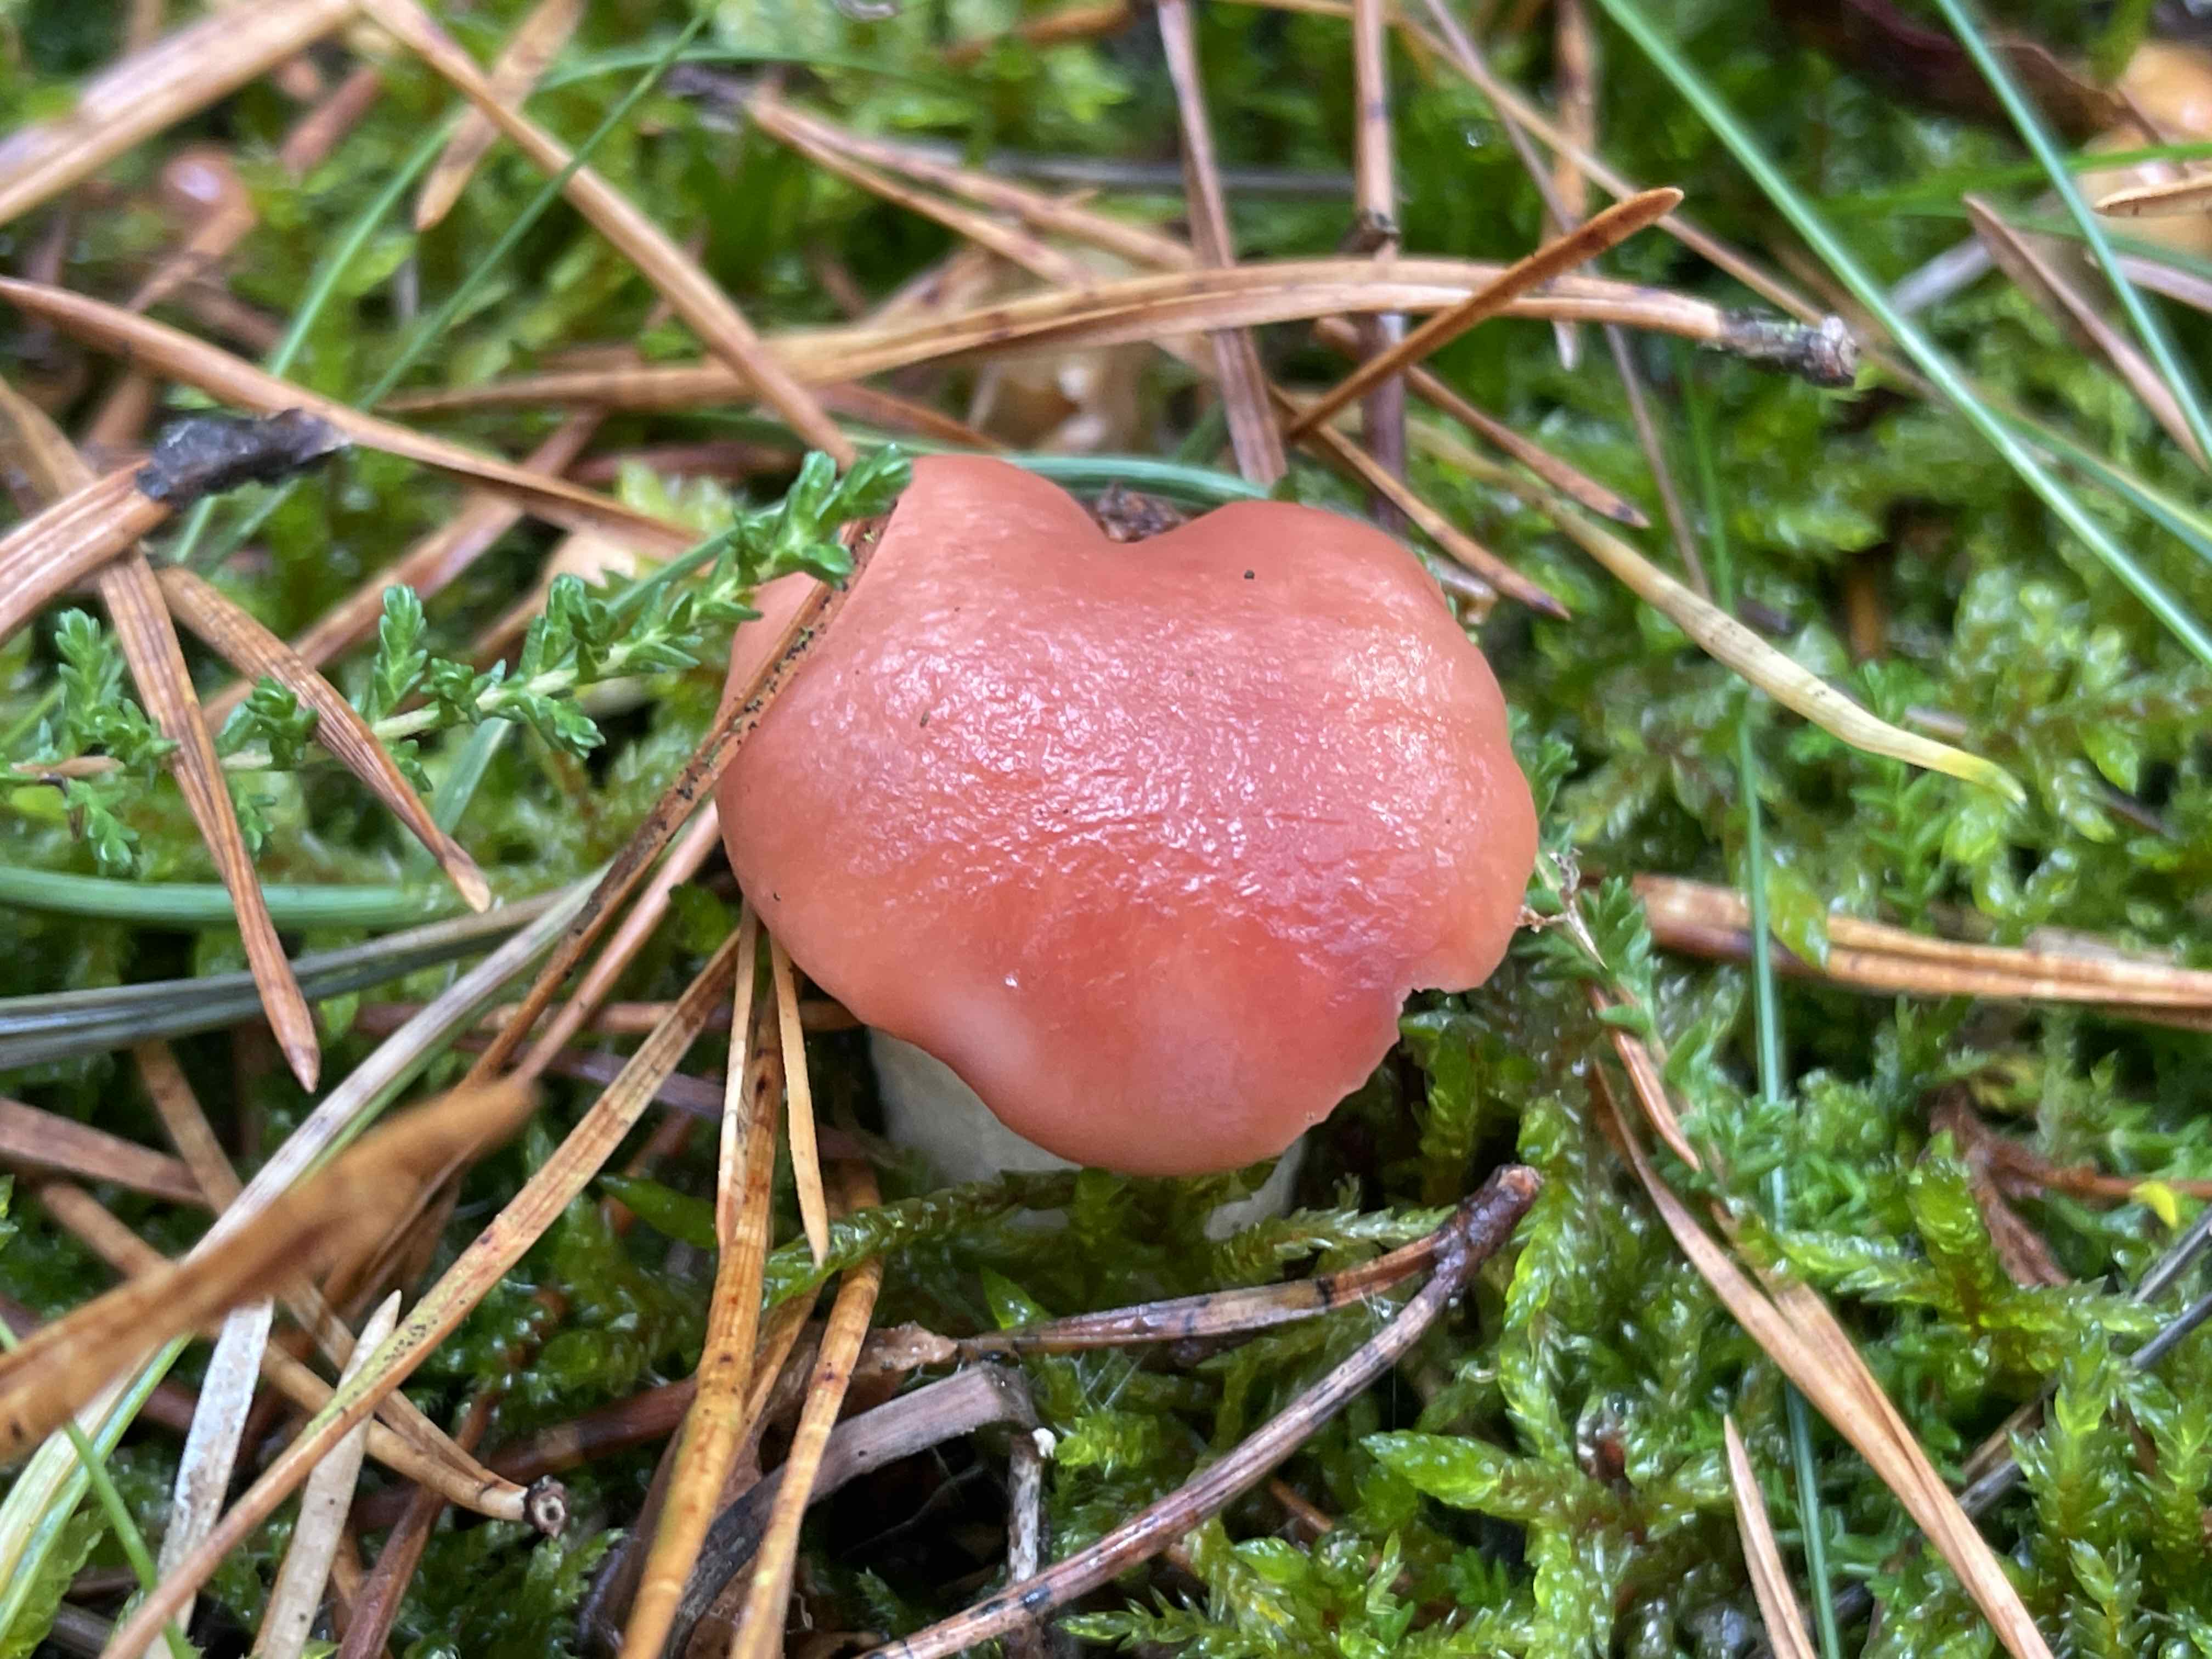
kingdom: Fungi
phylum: Basidiomycota
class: Agaricomycetes
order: Boletales
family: Gomphidiaceae
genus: Gomphidius
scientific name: Gomphidius roseus
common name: rosenrød slimslør
